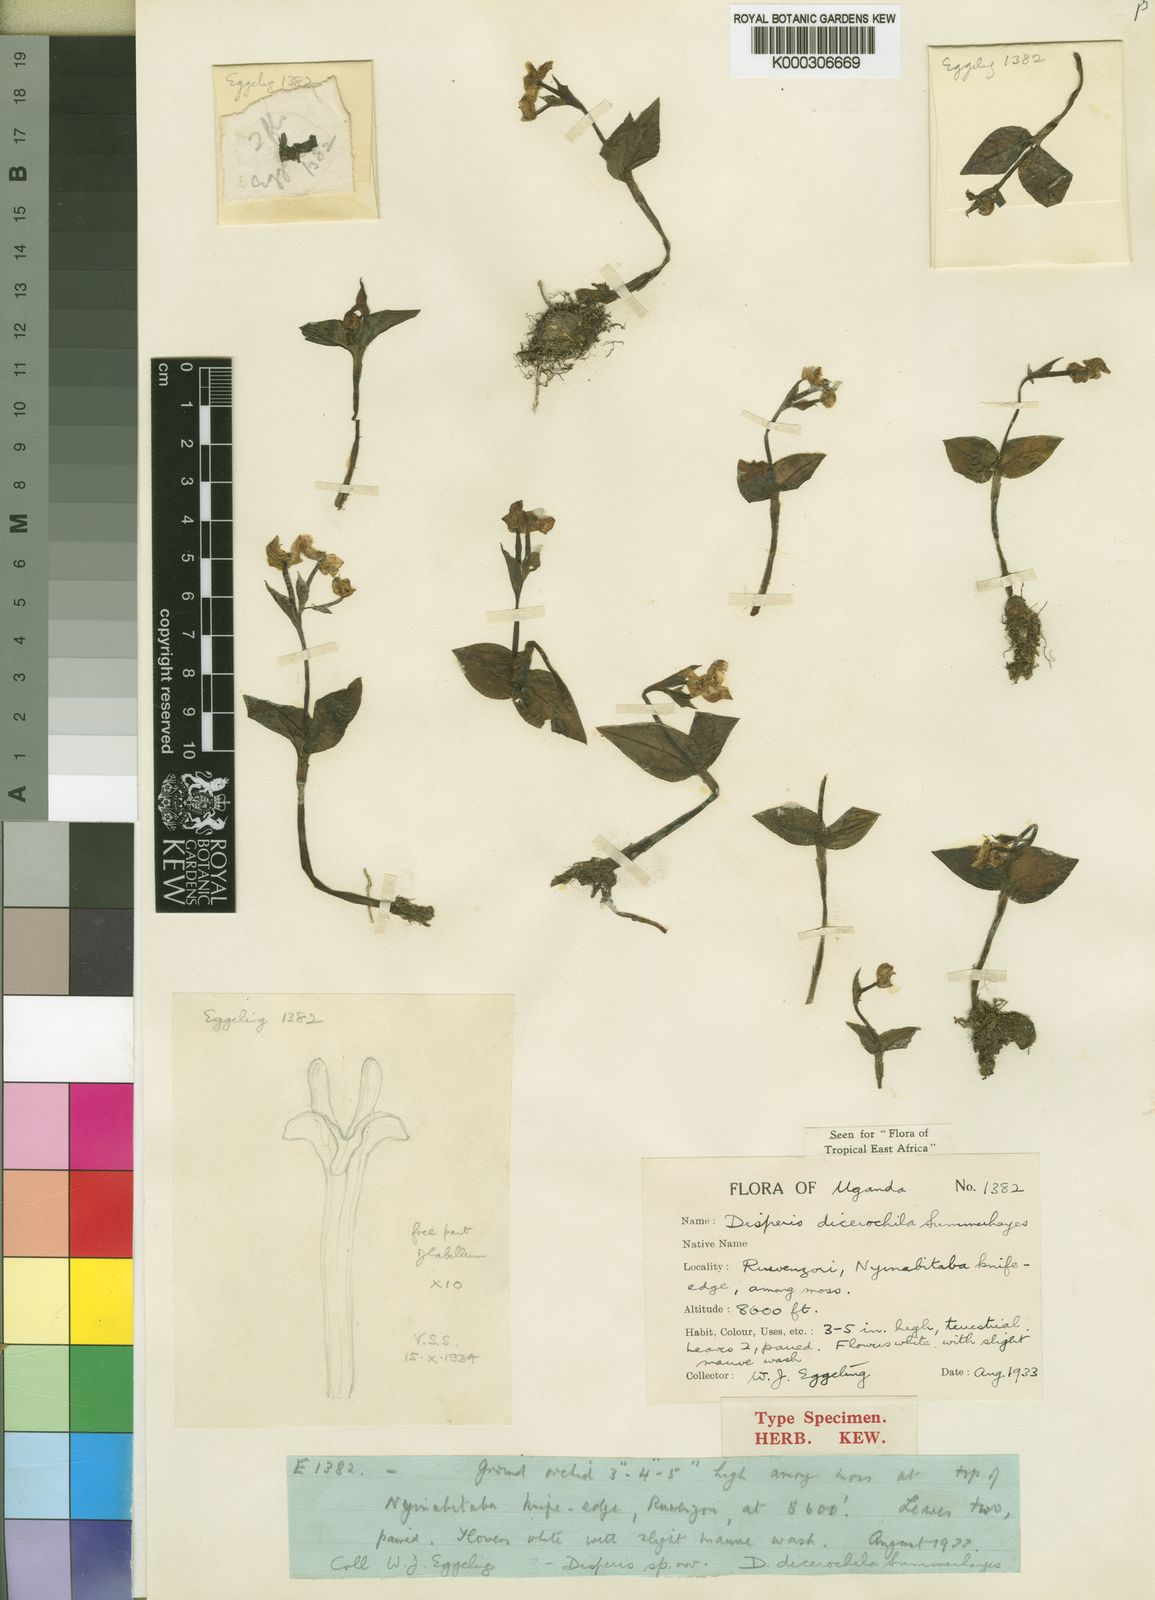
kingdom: Plantae
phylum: Tracheophyta
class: Liliopsida
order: Asparagales
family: Orchidaceae
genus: Disperis
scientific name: Disperis dicerochila
